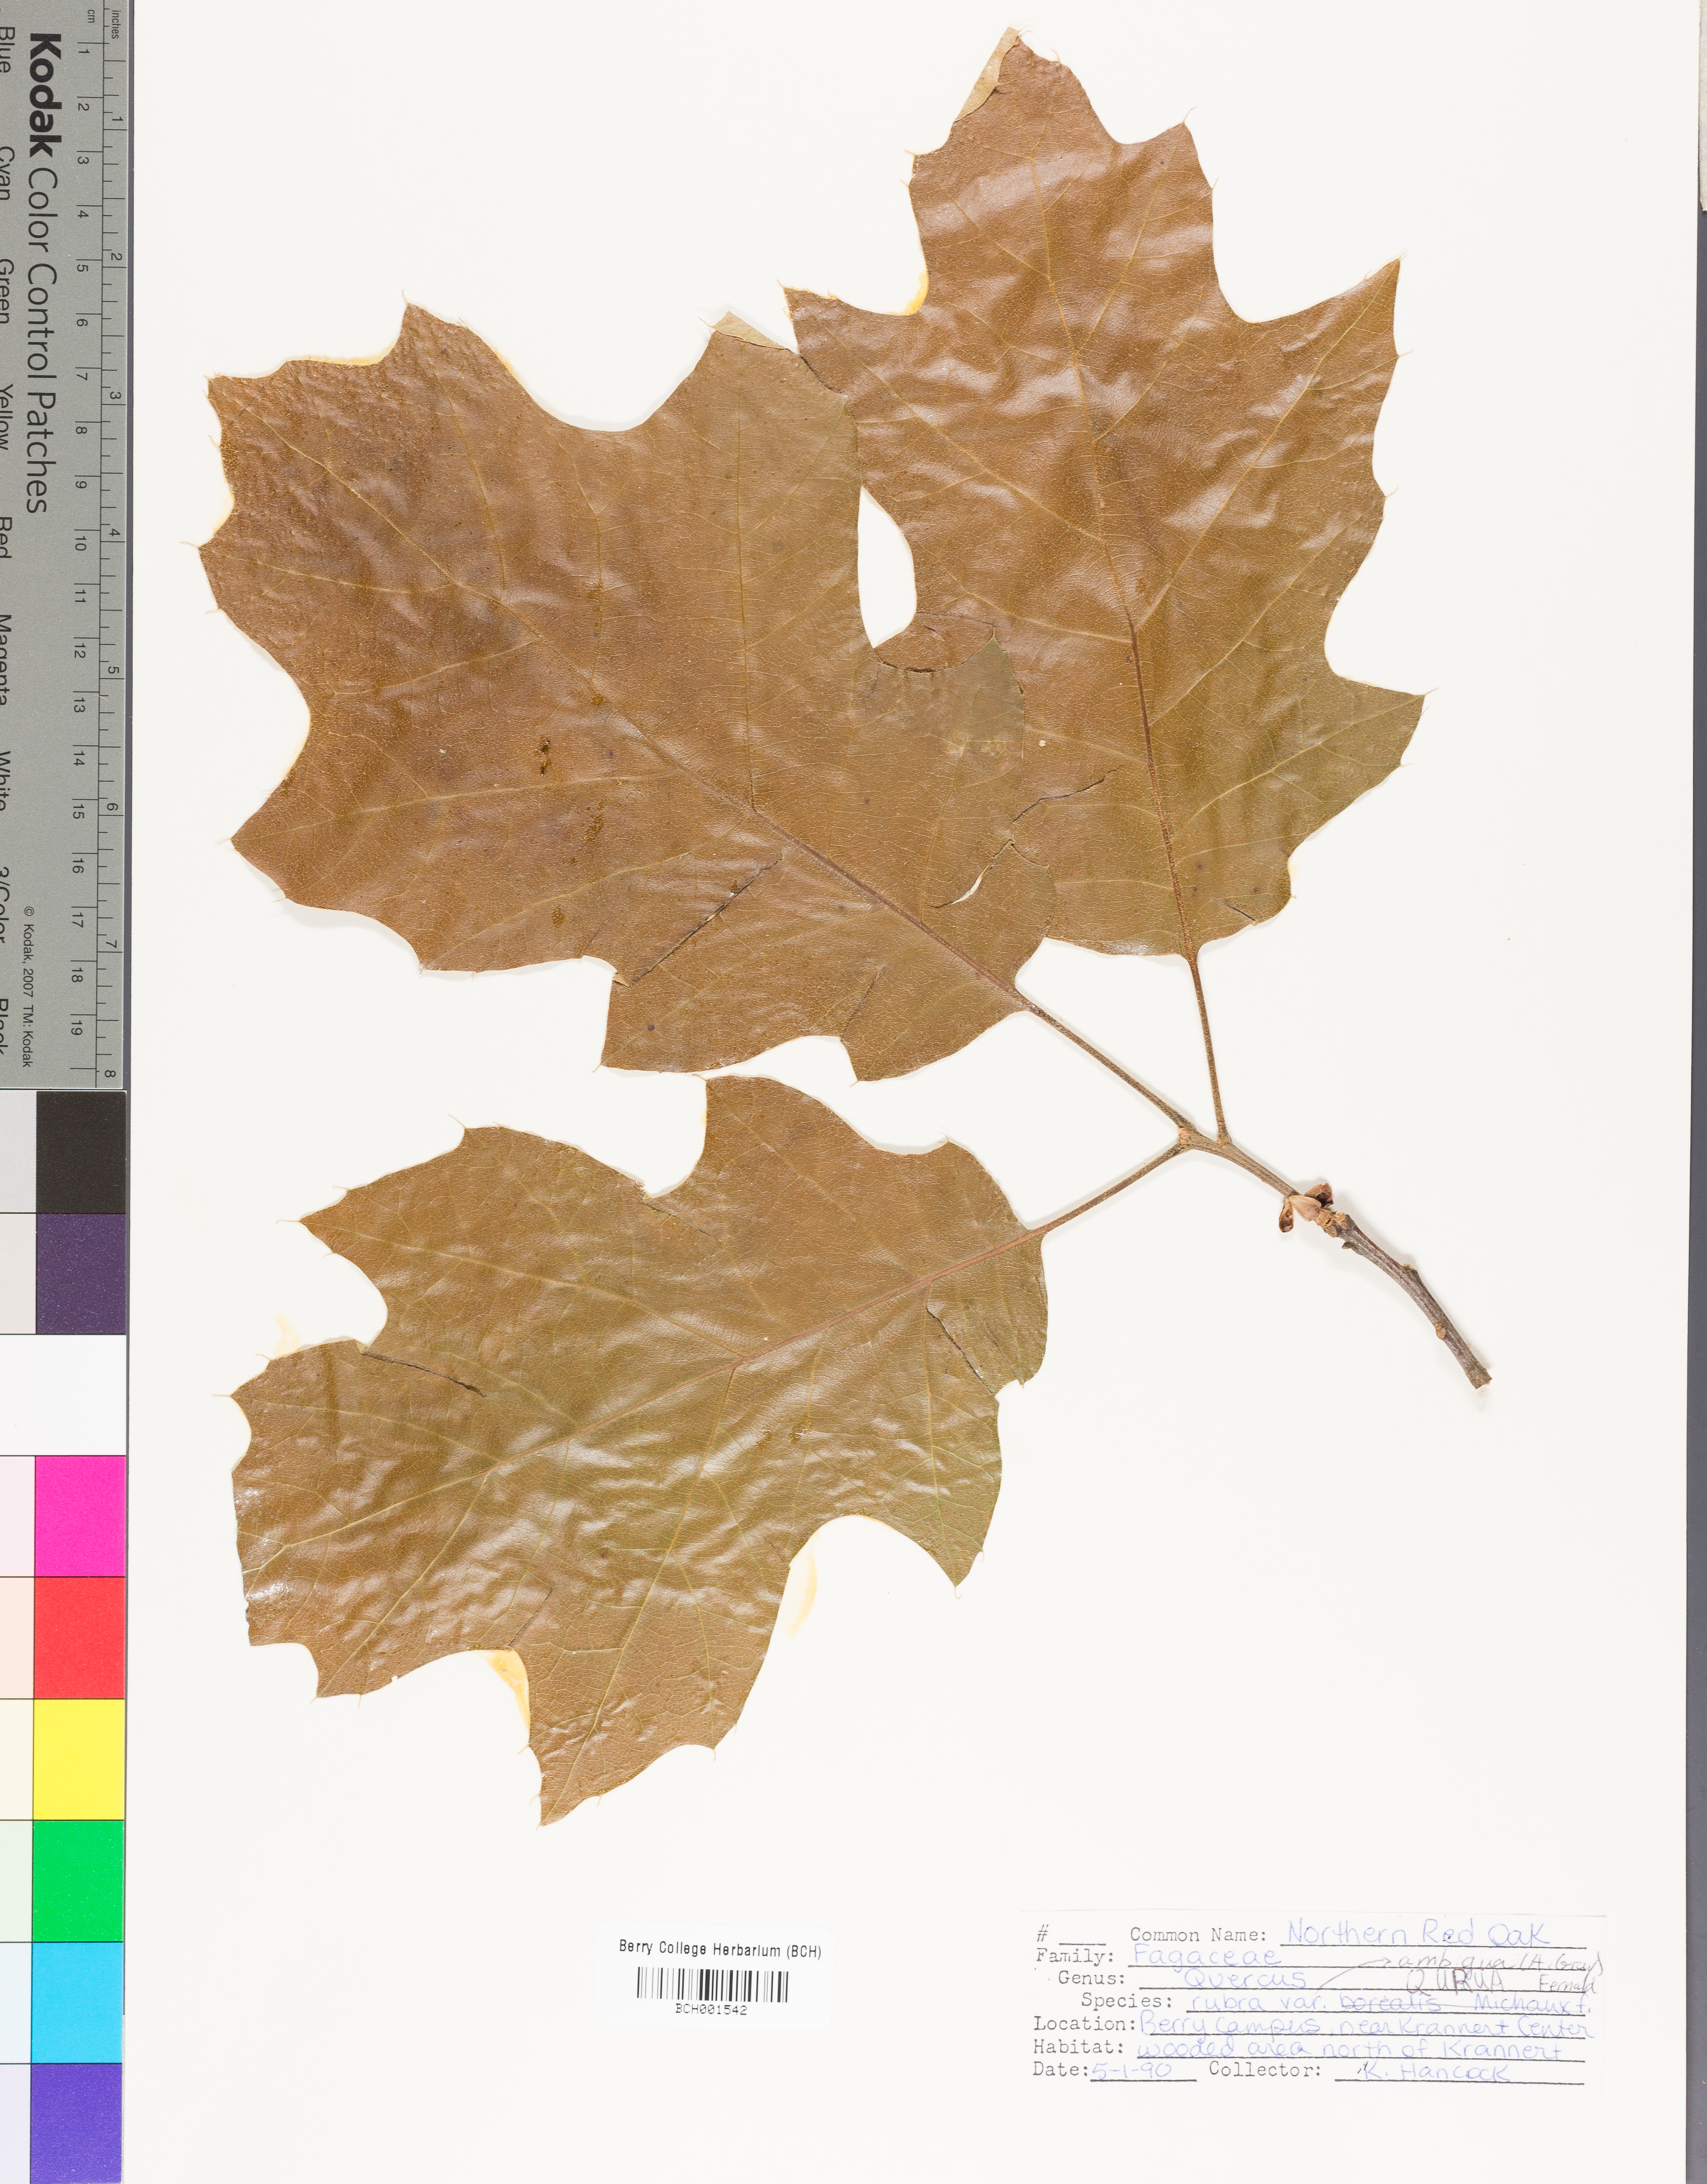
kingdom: Plantae
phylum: Tracheophyta
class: Magnoliopsida
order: Fagales
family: Fagaceae
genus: Quercus
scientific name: Quercus rubra
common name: Red oak
